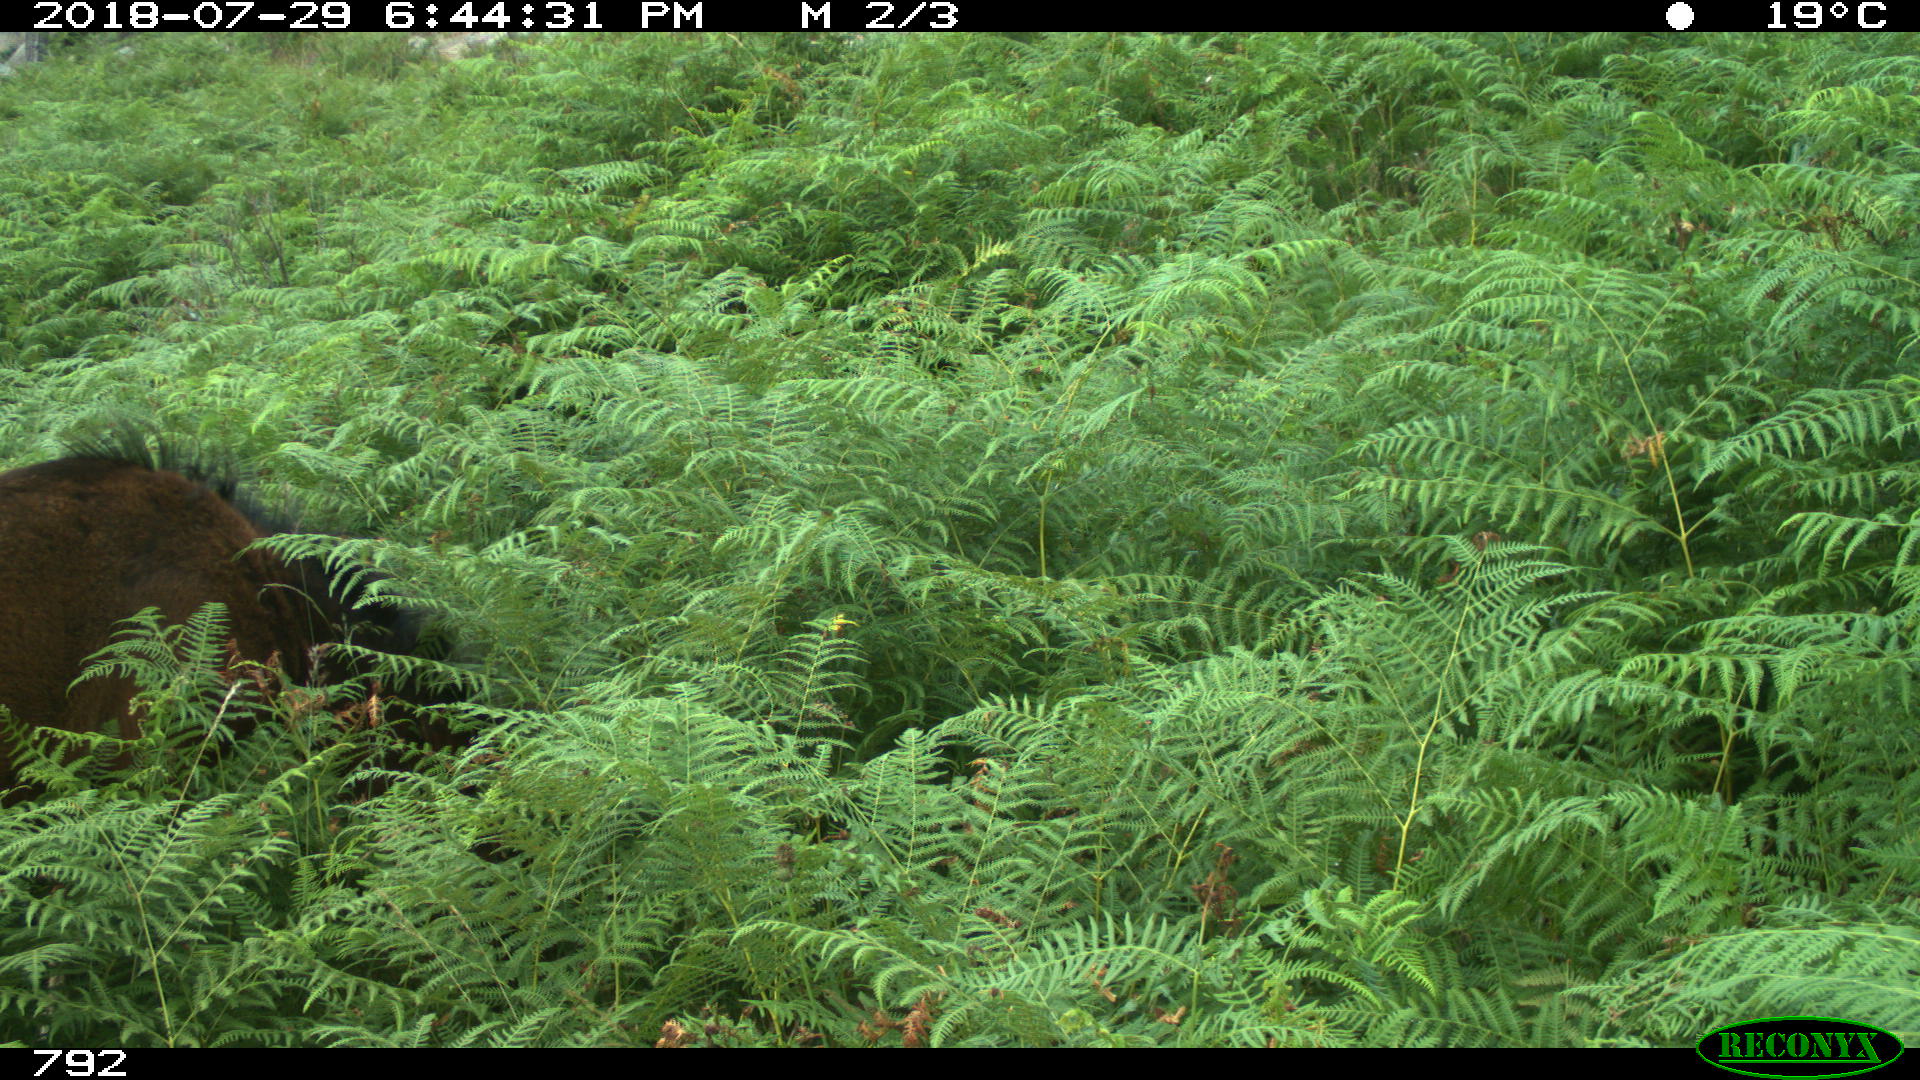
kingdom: Animalia
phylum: Chordata
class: Mammalia
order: Perissodactyla
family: Equidae
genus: Equus
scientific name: Equus caballus
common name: Horse
